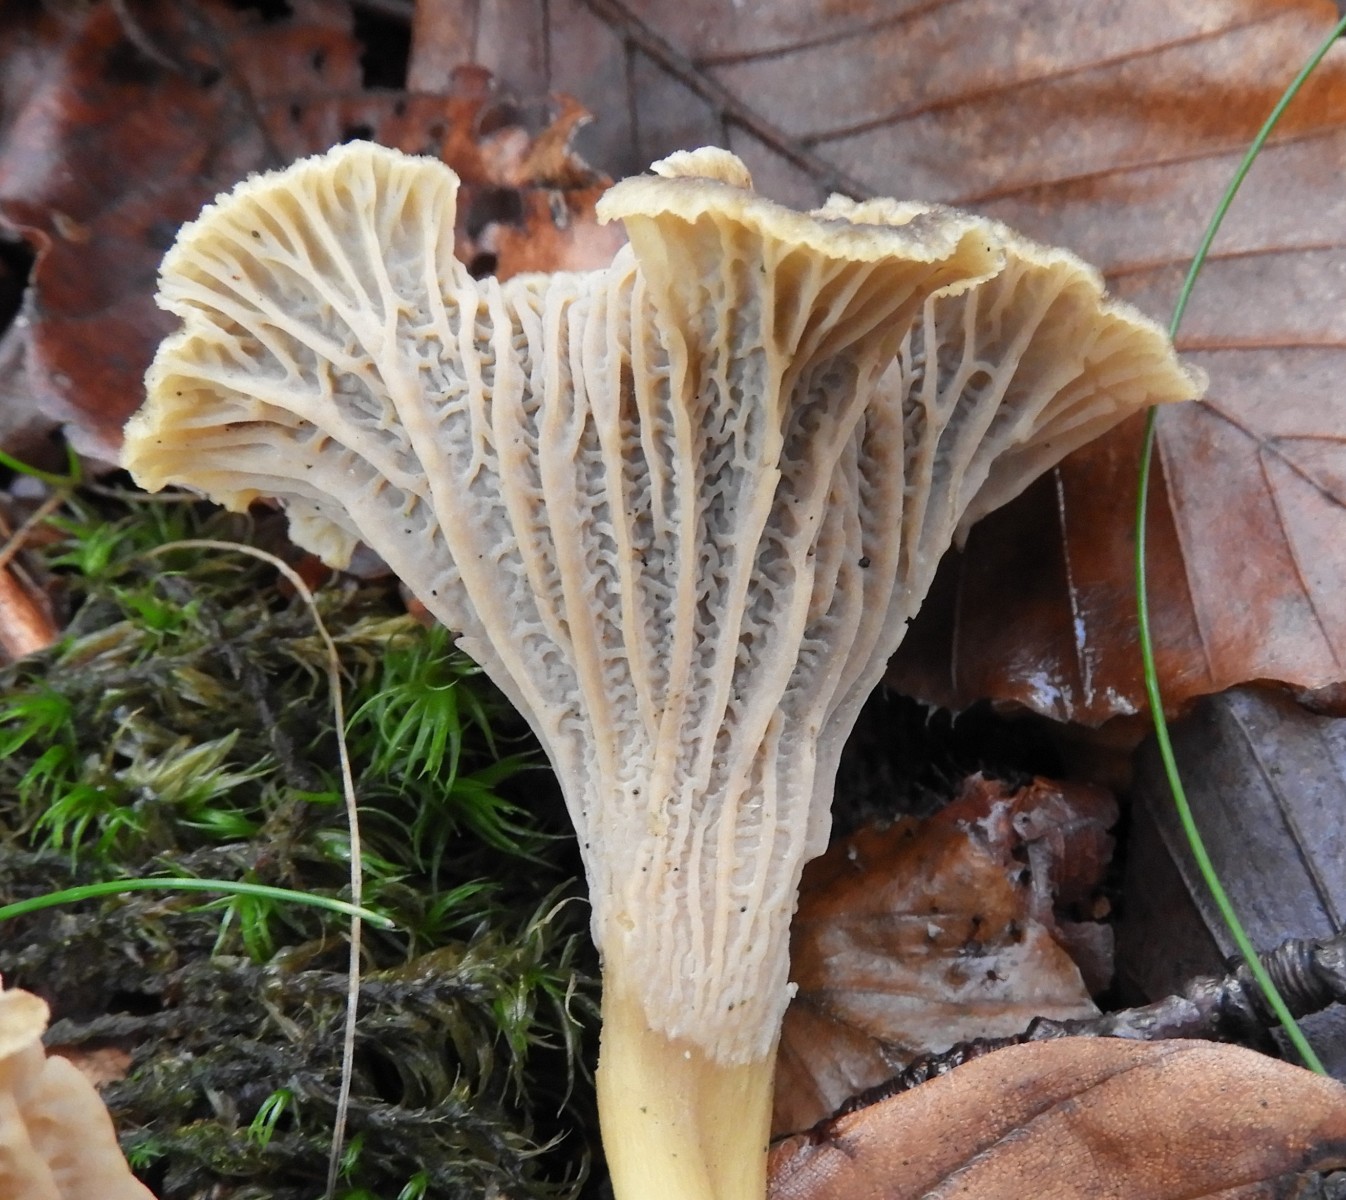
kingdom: Fungi
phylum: Basidiomycota
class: Agaricomycetes
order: Cantharellales
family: Hydnaceae
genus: Craterellus
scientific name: Craterellus tubaeformis
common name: tragt-kantarel
